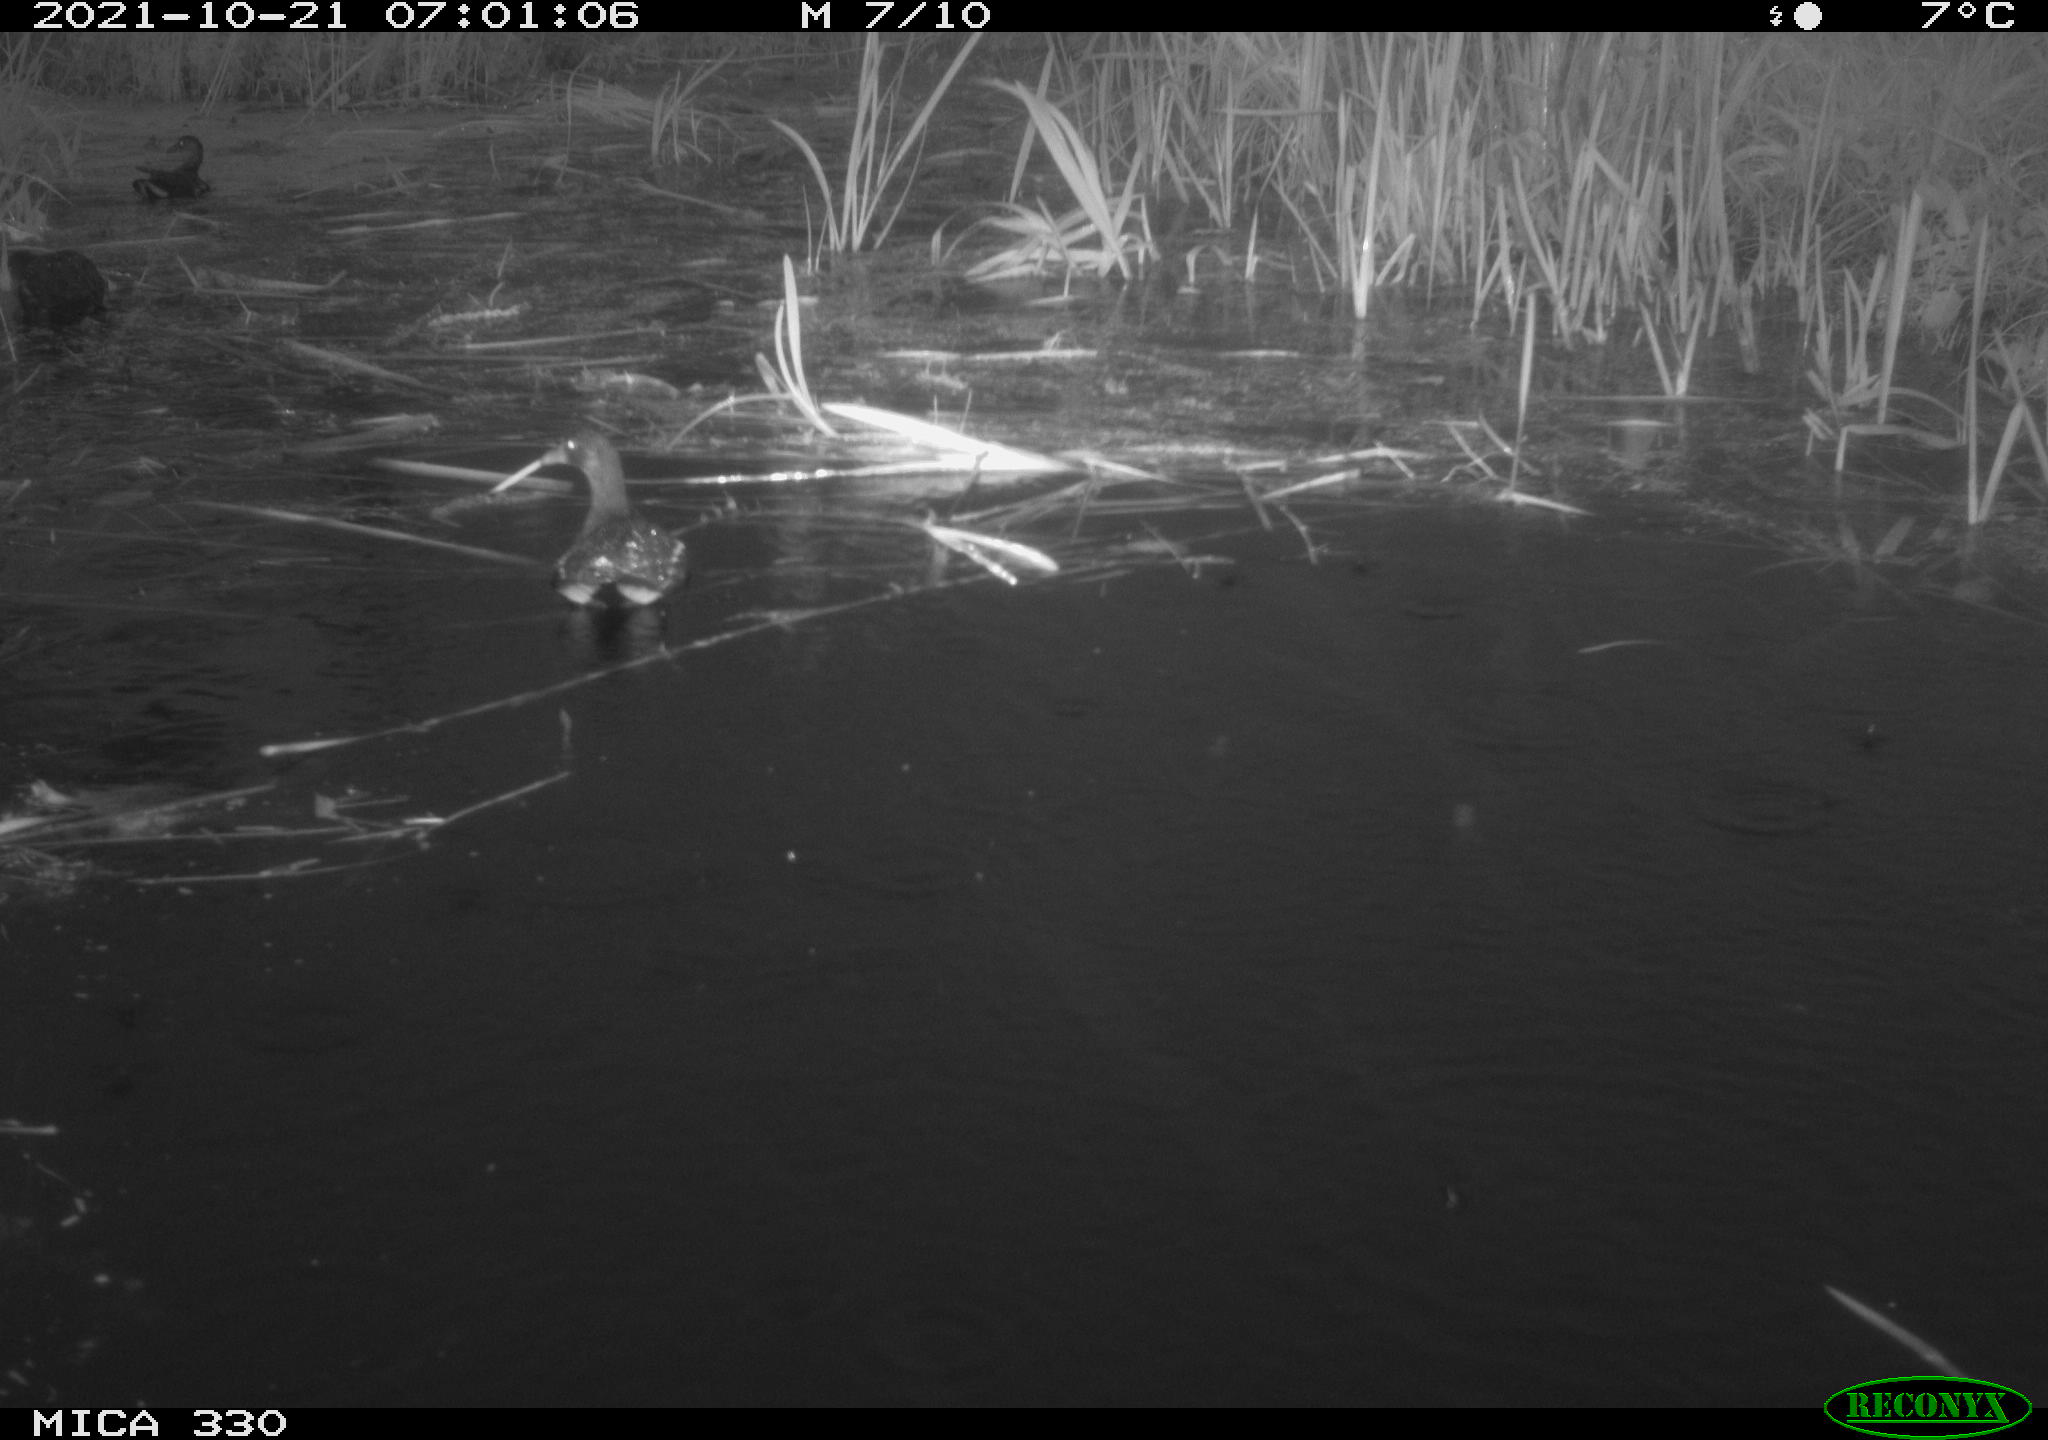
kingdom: Animalia
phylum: Chordata
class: Aves
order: Gruiformes
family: Rallidae
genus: Gallinula
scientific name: Gallinula chloropus
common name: Common moorhen
